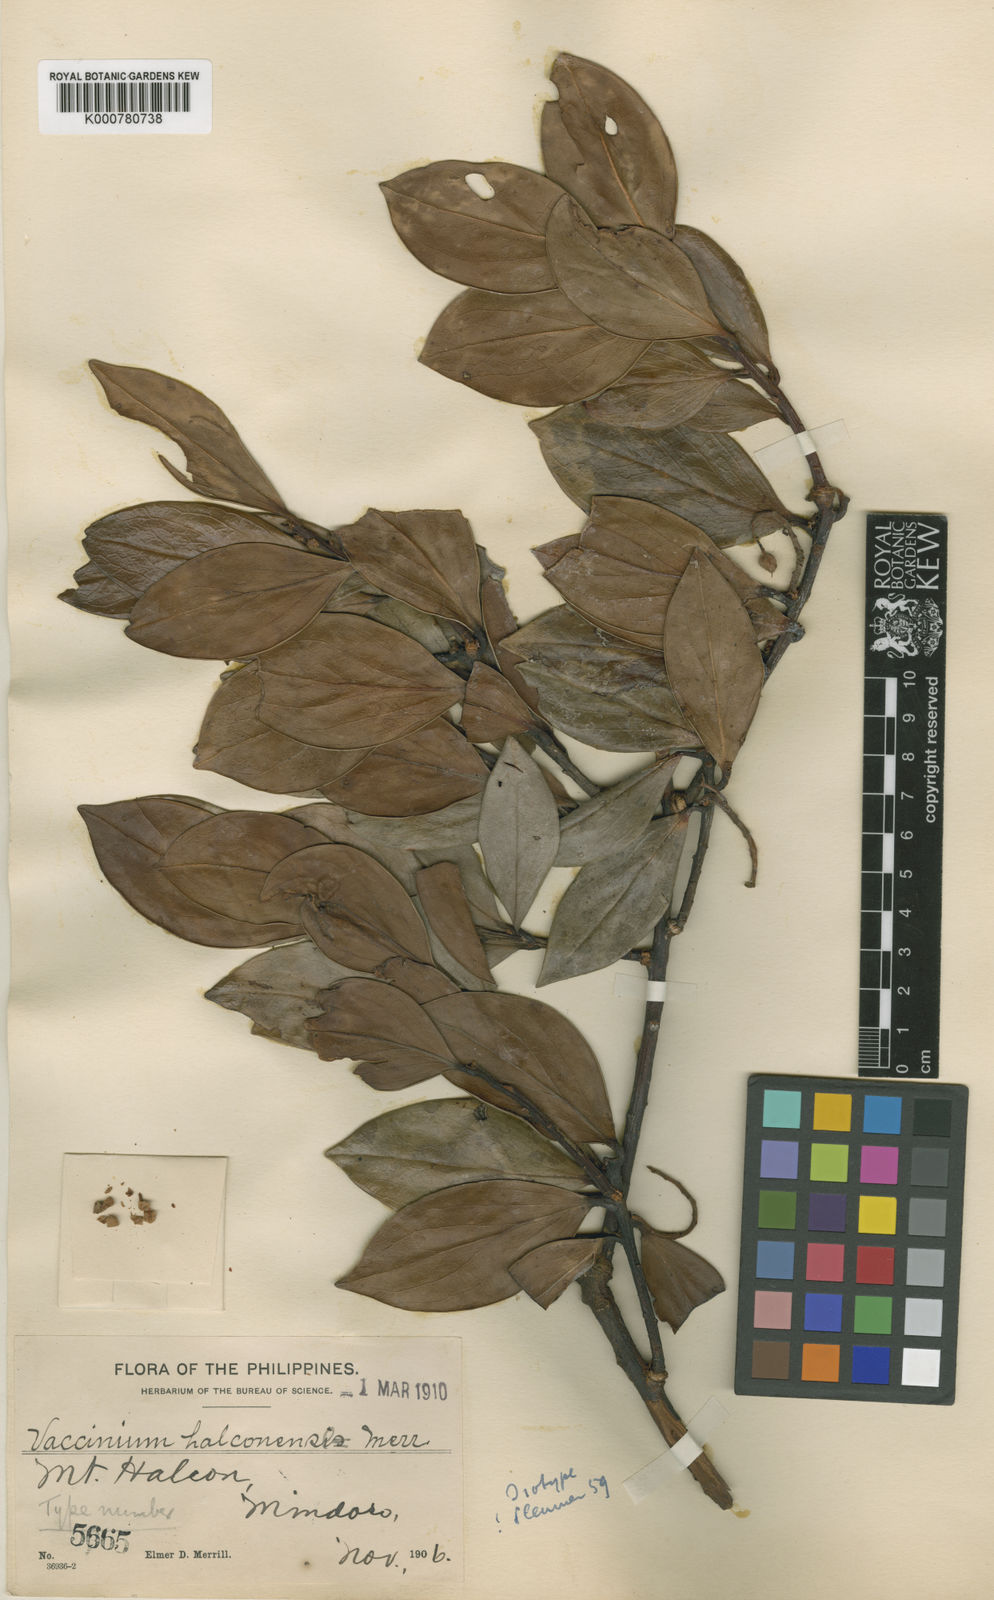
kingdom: Plantae
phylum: Tracheophyta
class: Magnoliopsida
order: Ericales
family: Ericaceae
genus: Vaccinium
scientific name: Vaccinium halconense
